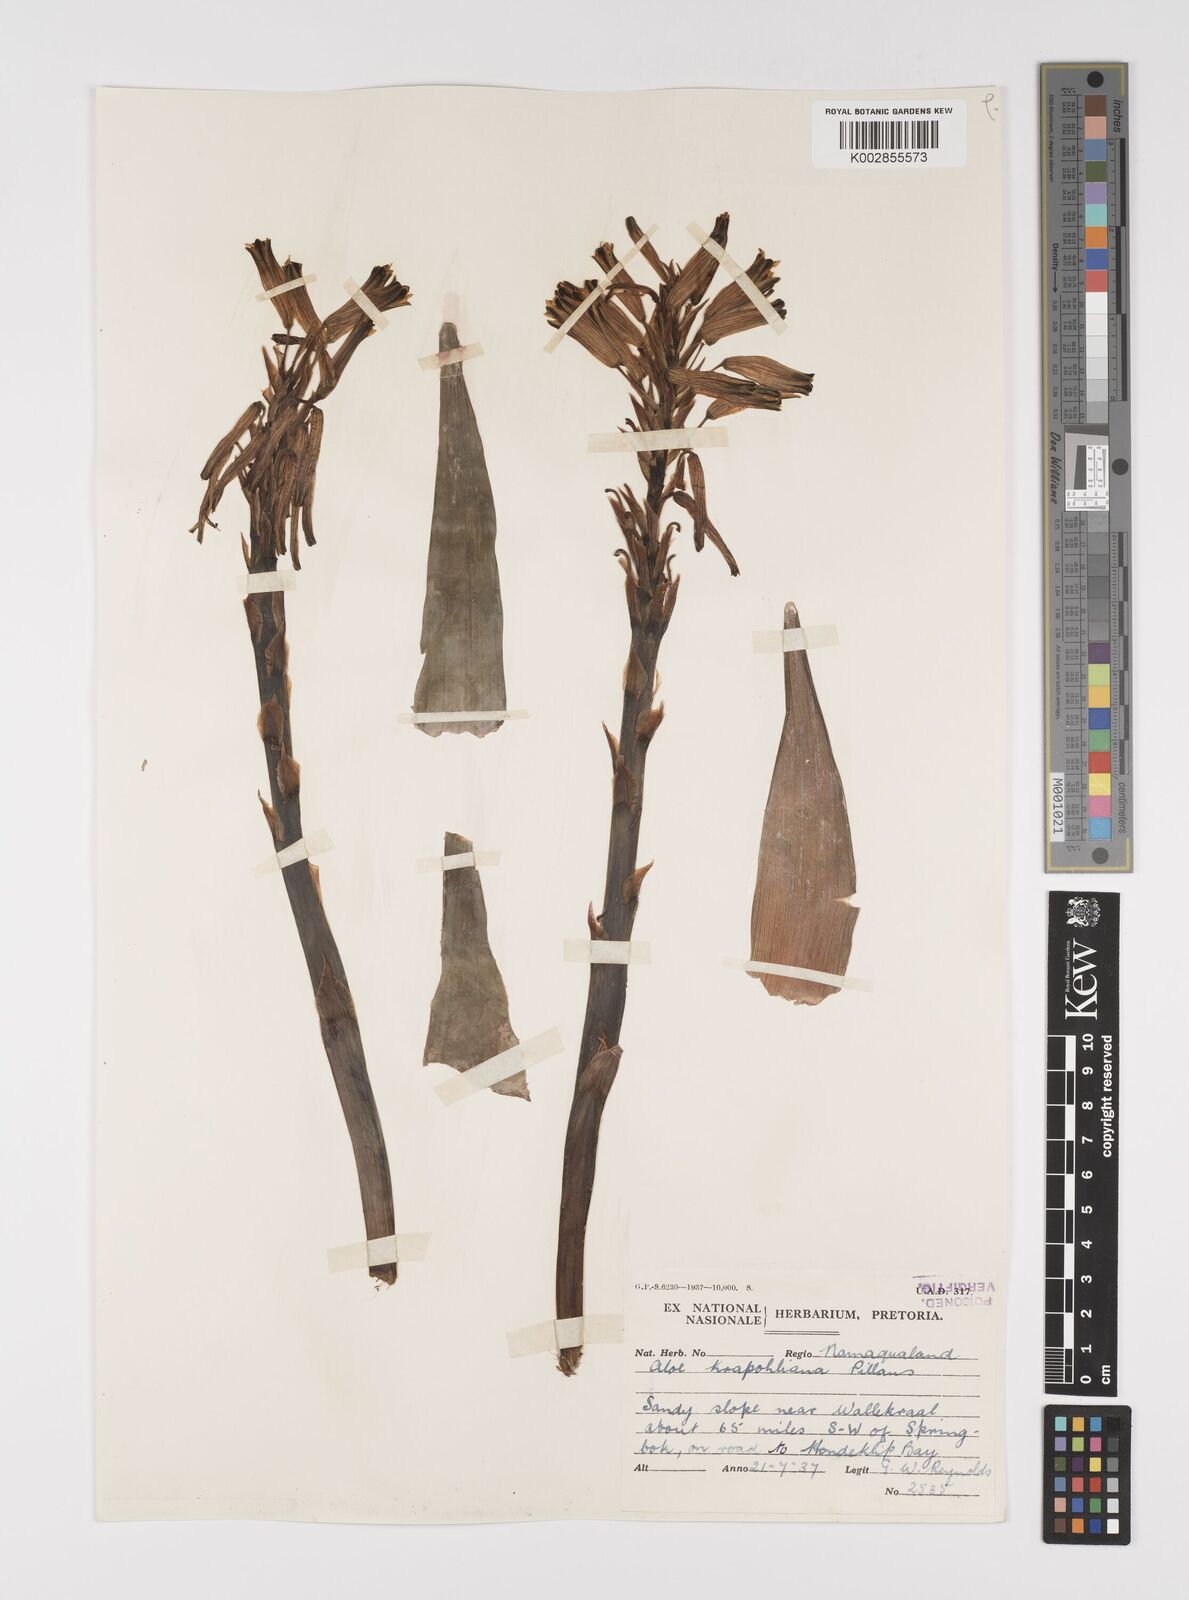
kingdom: Plantae
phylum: Tracheophyta
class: Liliopsida
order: Asparagales
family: Asphodelaceae
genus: Aloe
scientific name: Aloe humilis
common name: Dwarf hedgehog aloe
